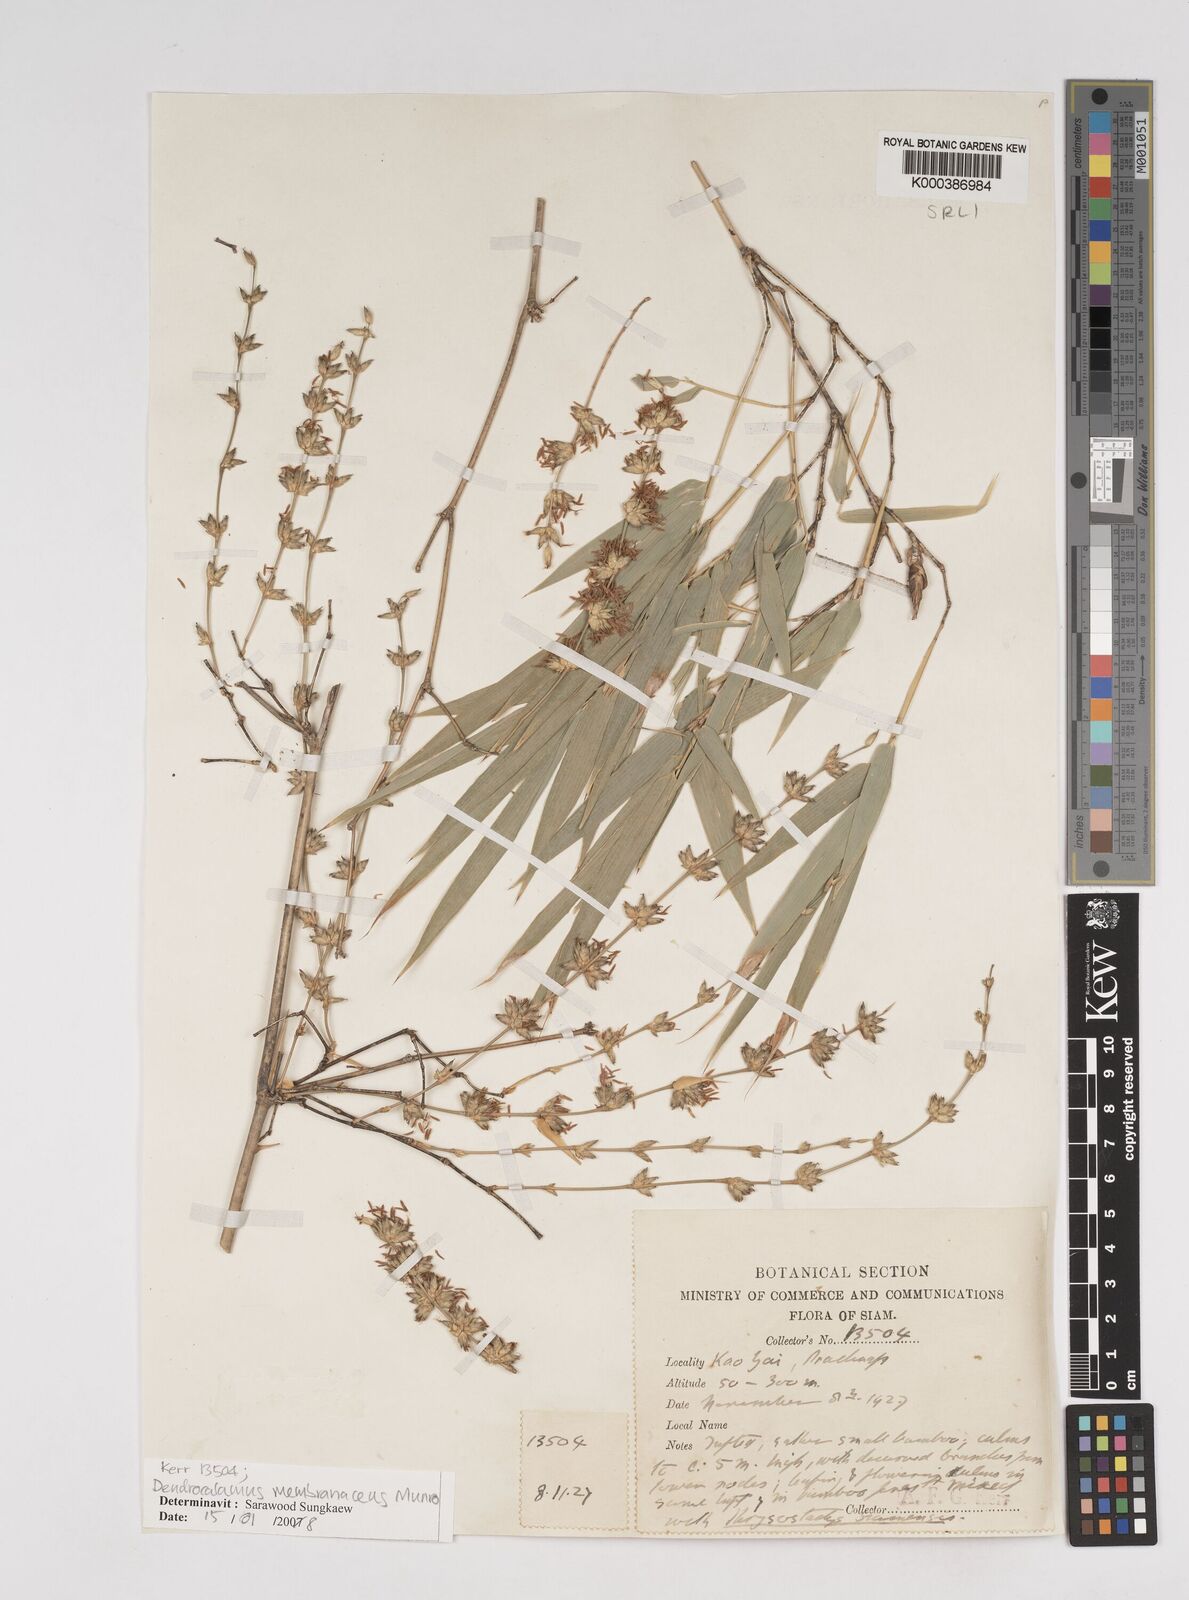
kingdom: Plantae
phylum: Tracheophyta
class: Liliopsida
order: Poales
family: Poaceae
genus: Dendrocalamus
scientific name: Dendrocalamus membranaceus
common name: White bamboo
